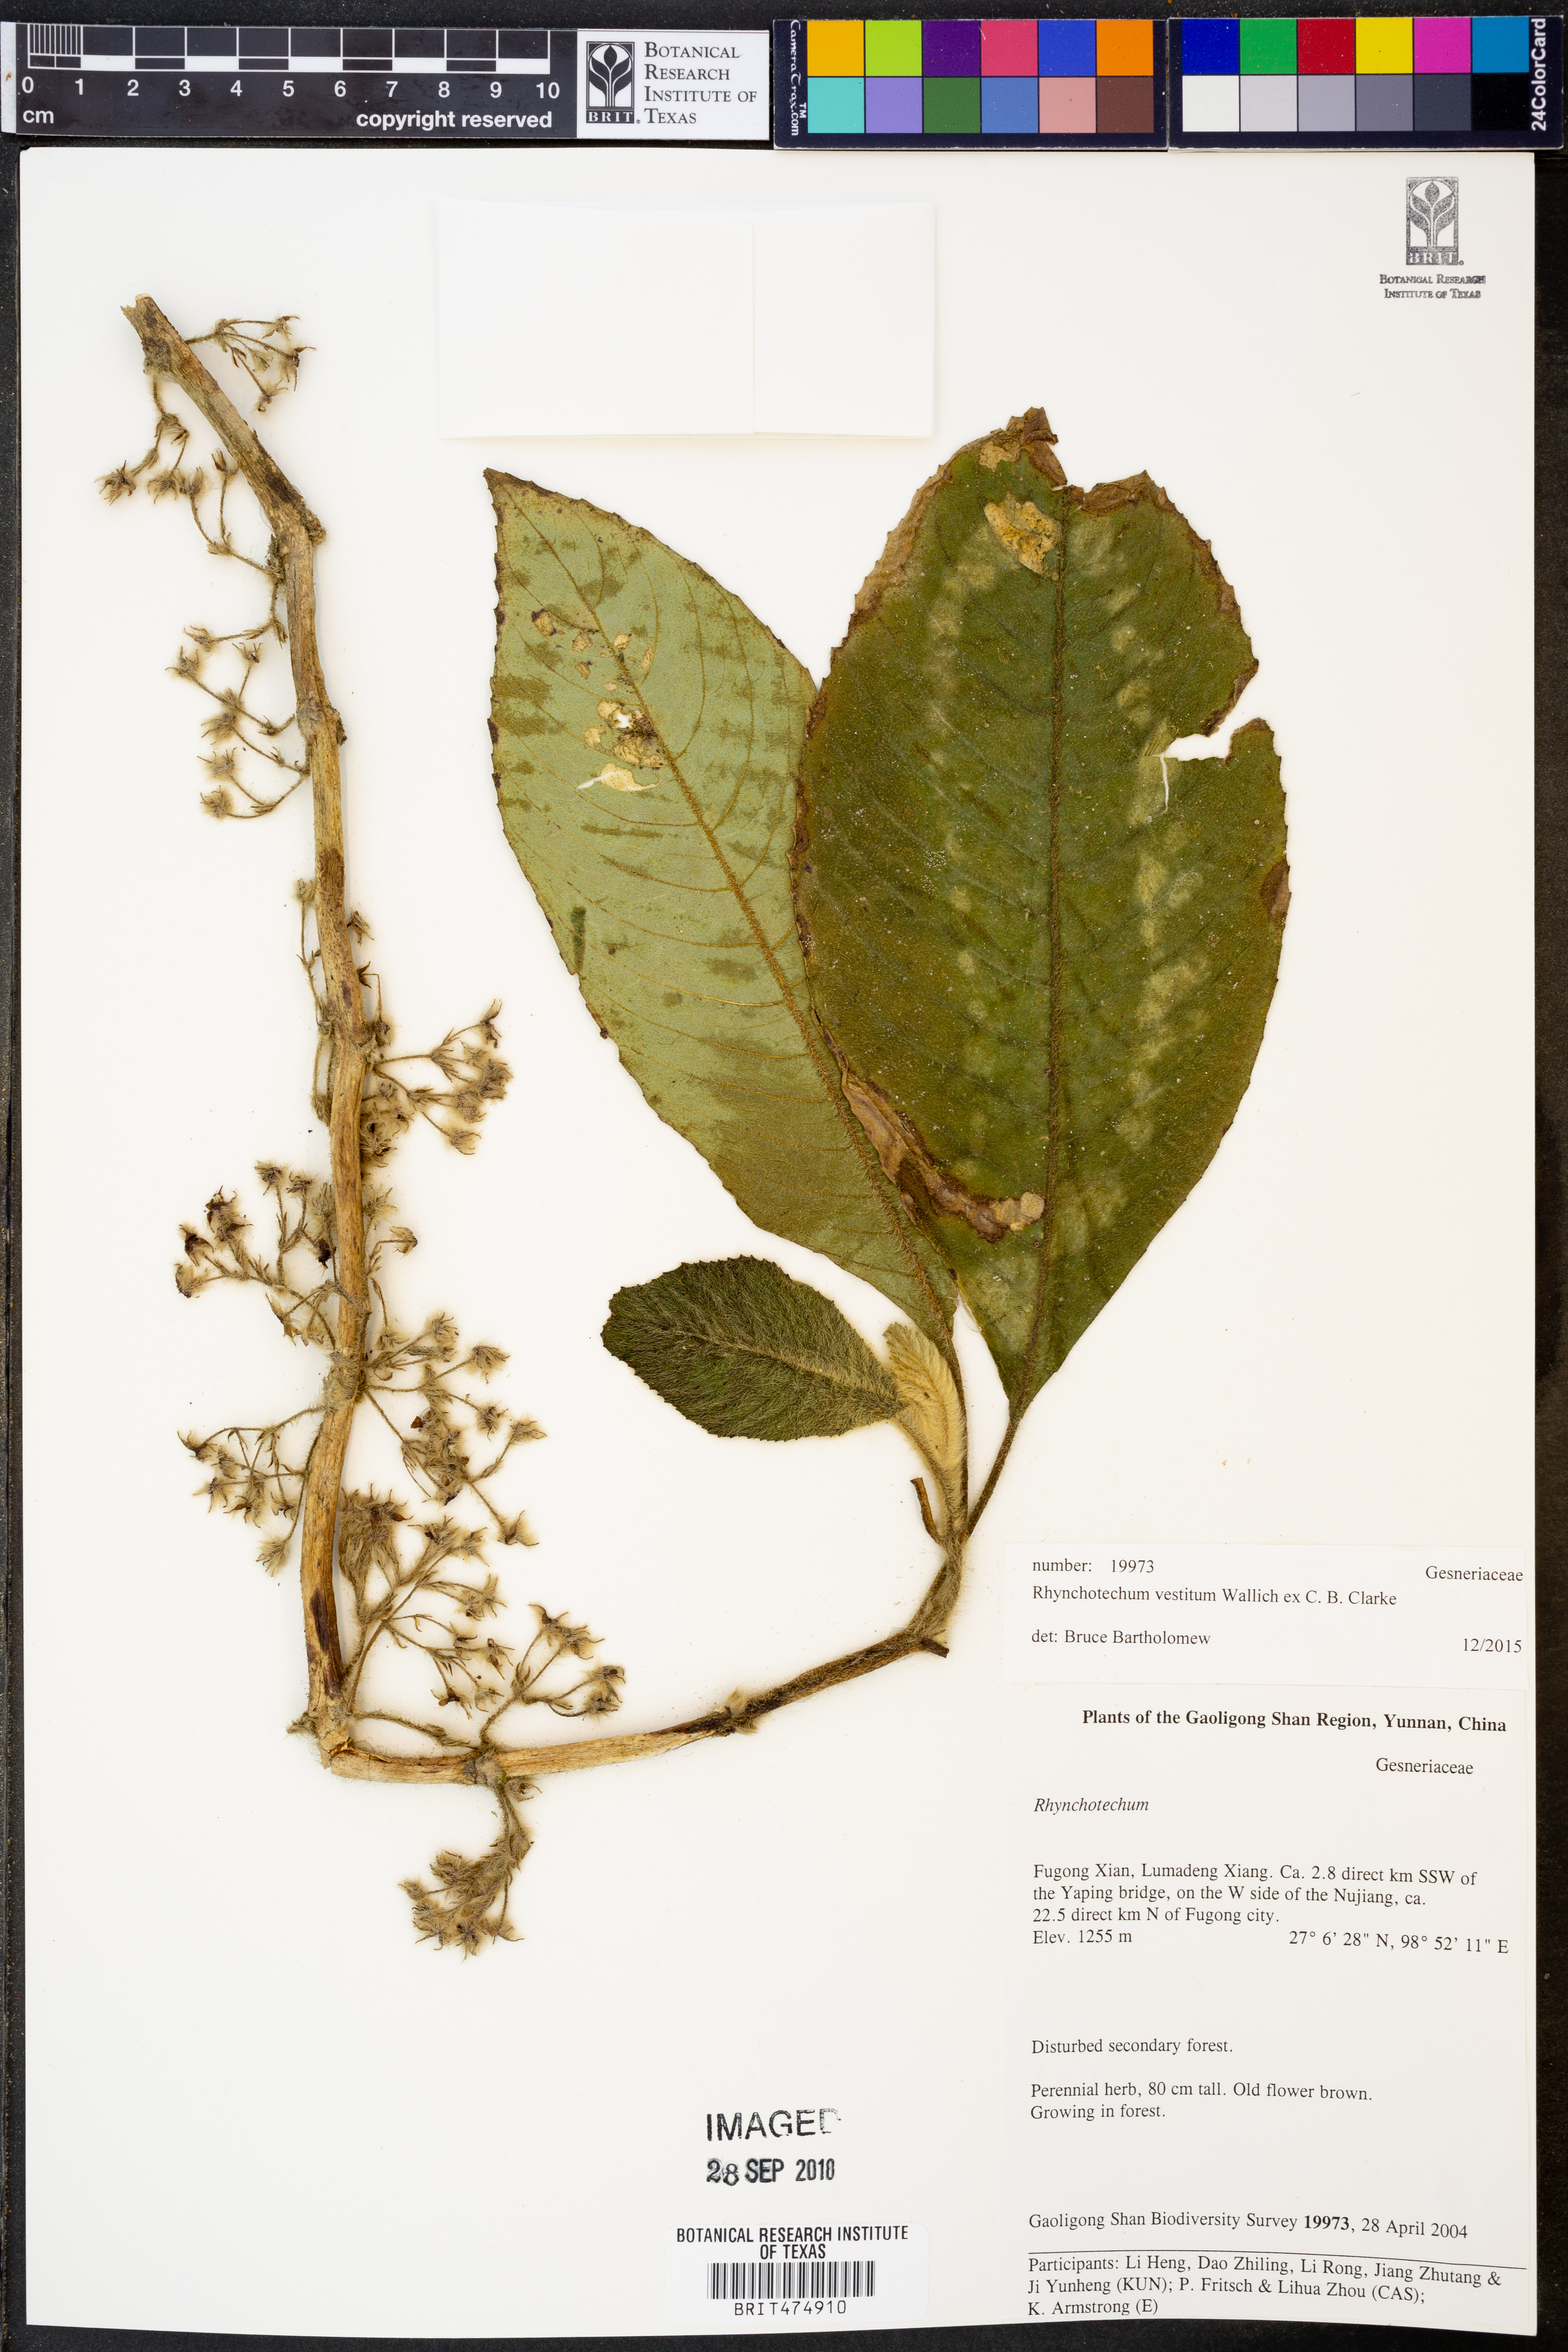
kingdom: Plantae
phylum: Tracheophyta
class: Magnoliopsida
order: Lamiales
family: Gesneriaceae
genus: Rhynchotechum
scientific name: Rhynchotechum vestitum
